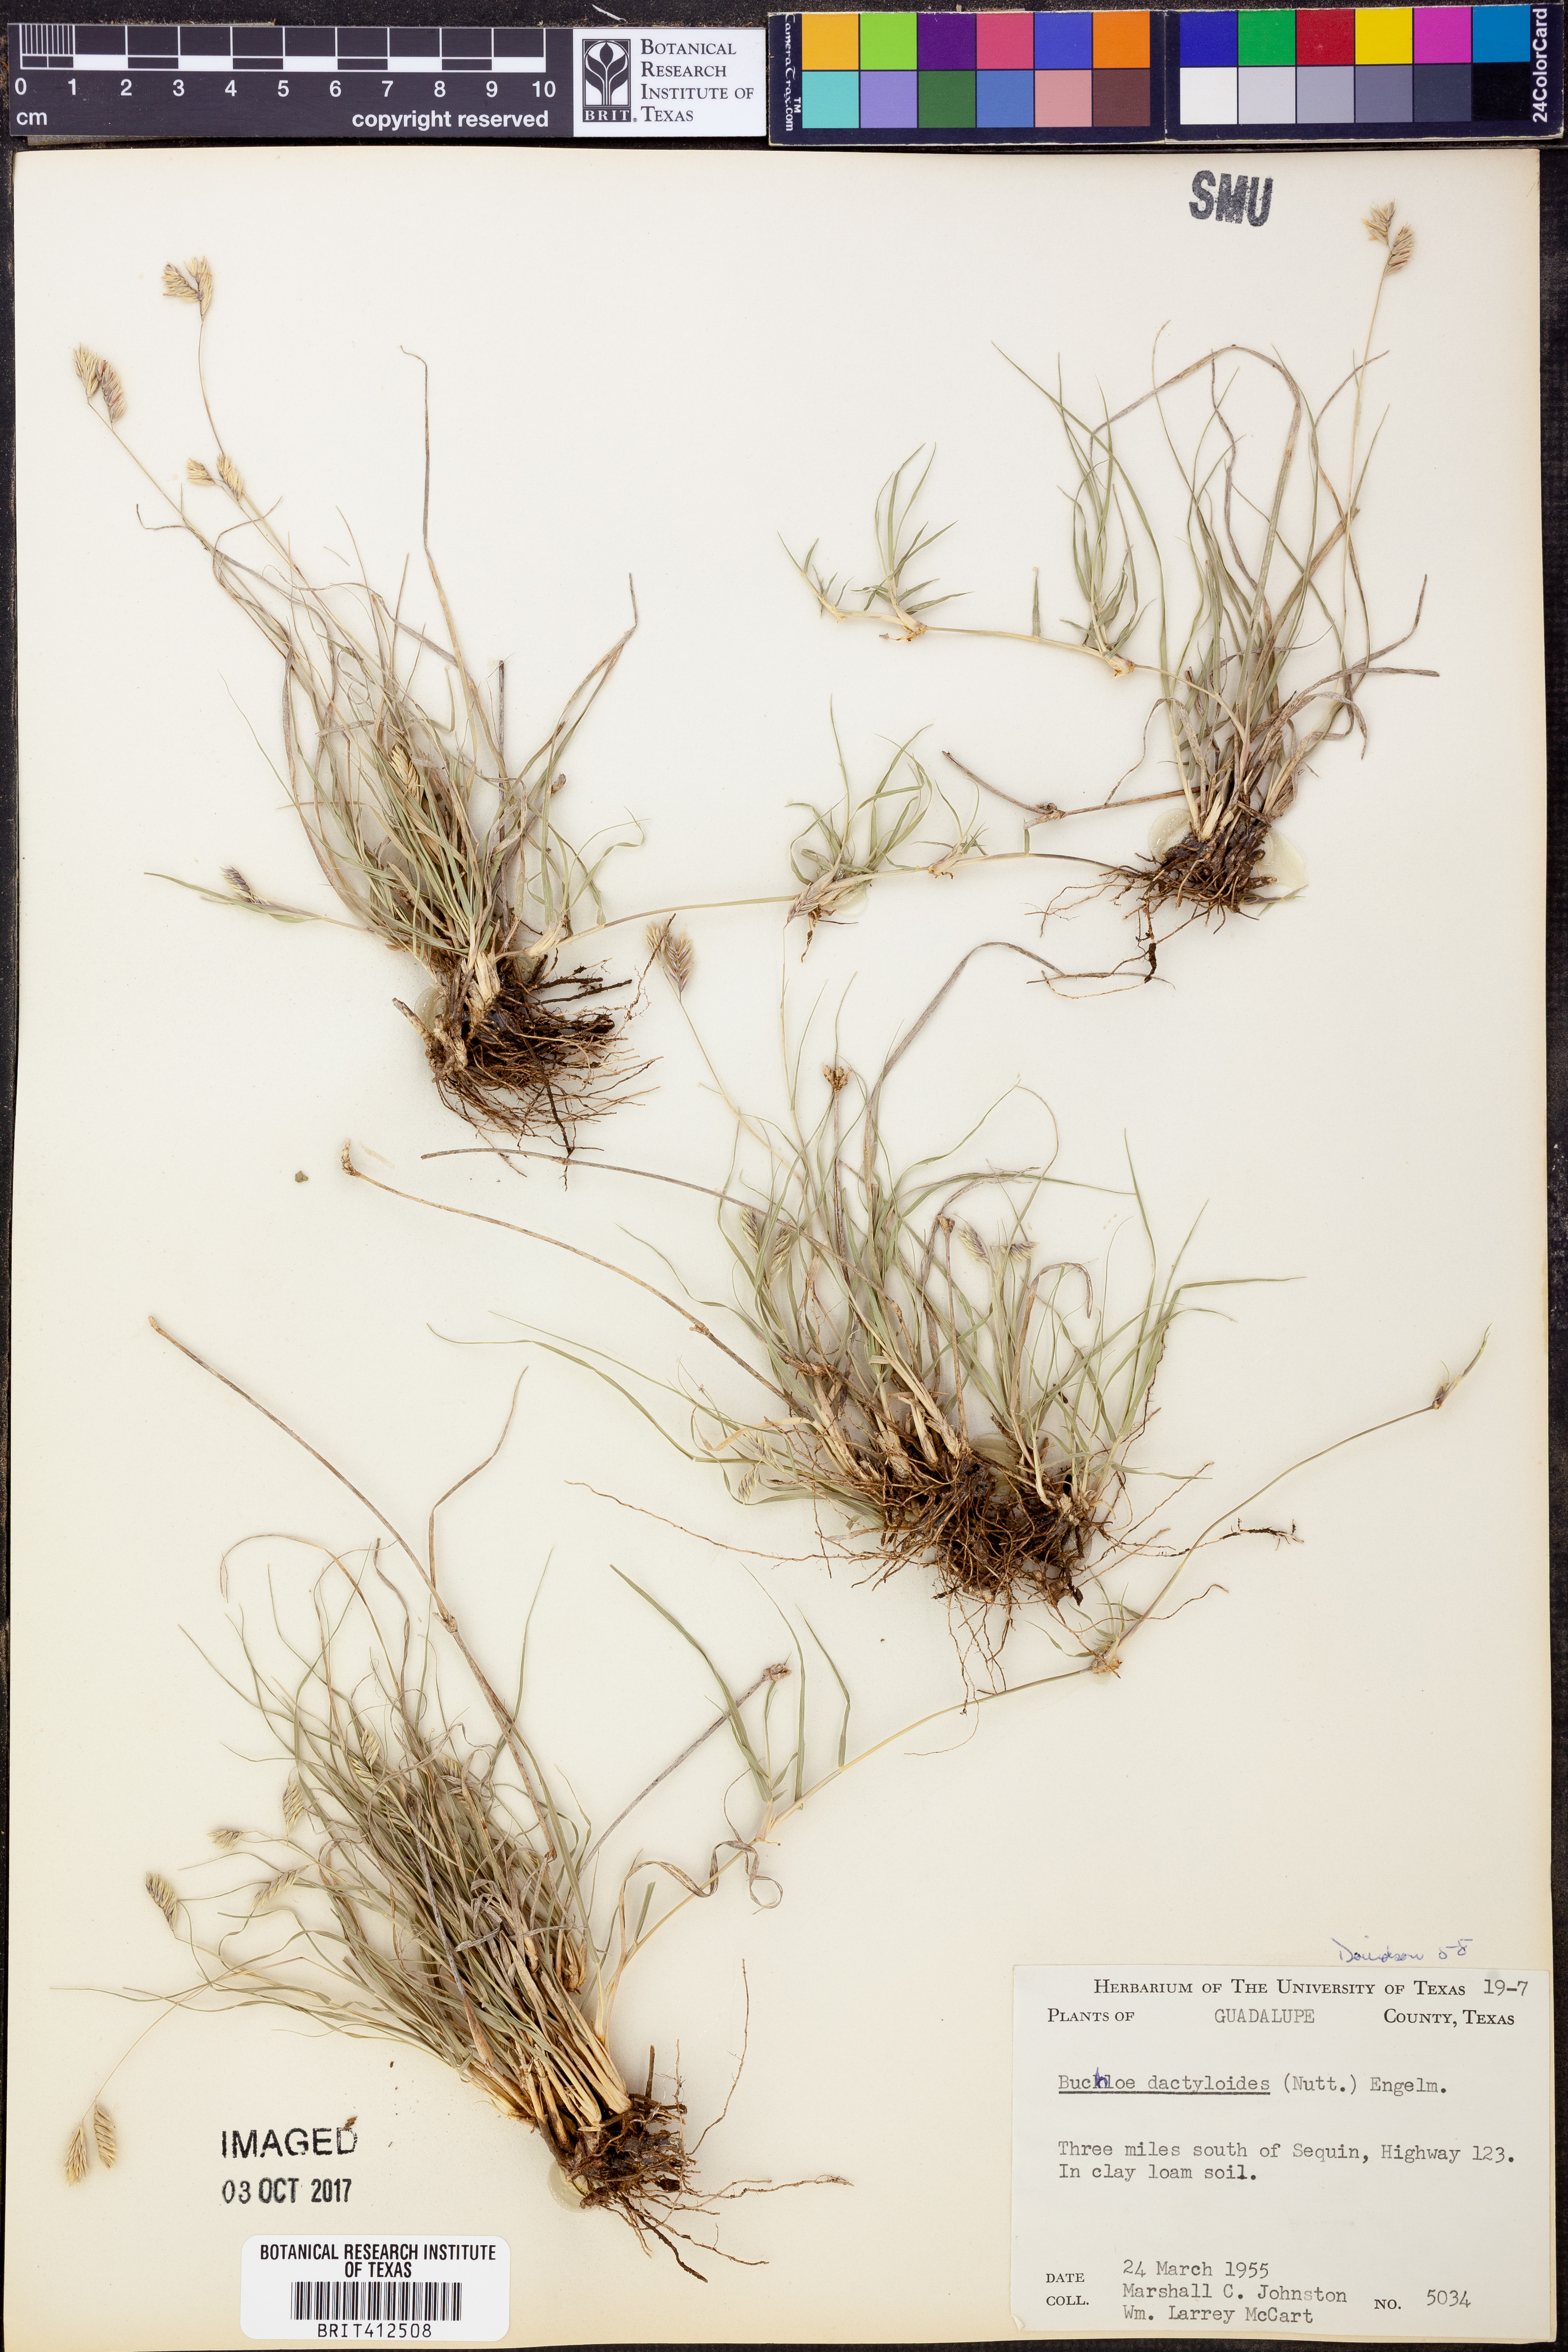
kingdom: Plantae
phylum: Tracheophyta
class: Liliopsida
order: Poales
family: Poaceae
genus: Bouteloua
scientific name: Bouteloua dactyloides
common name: Buffalo grass
